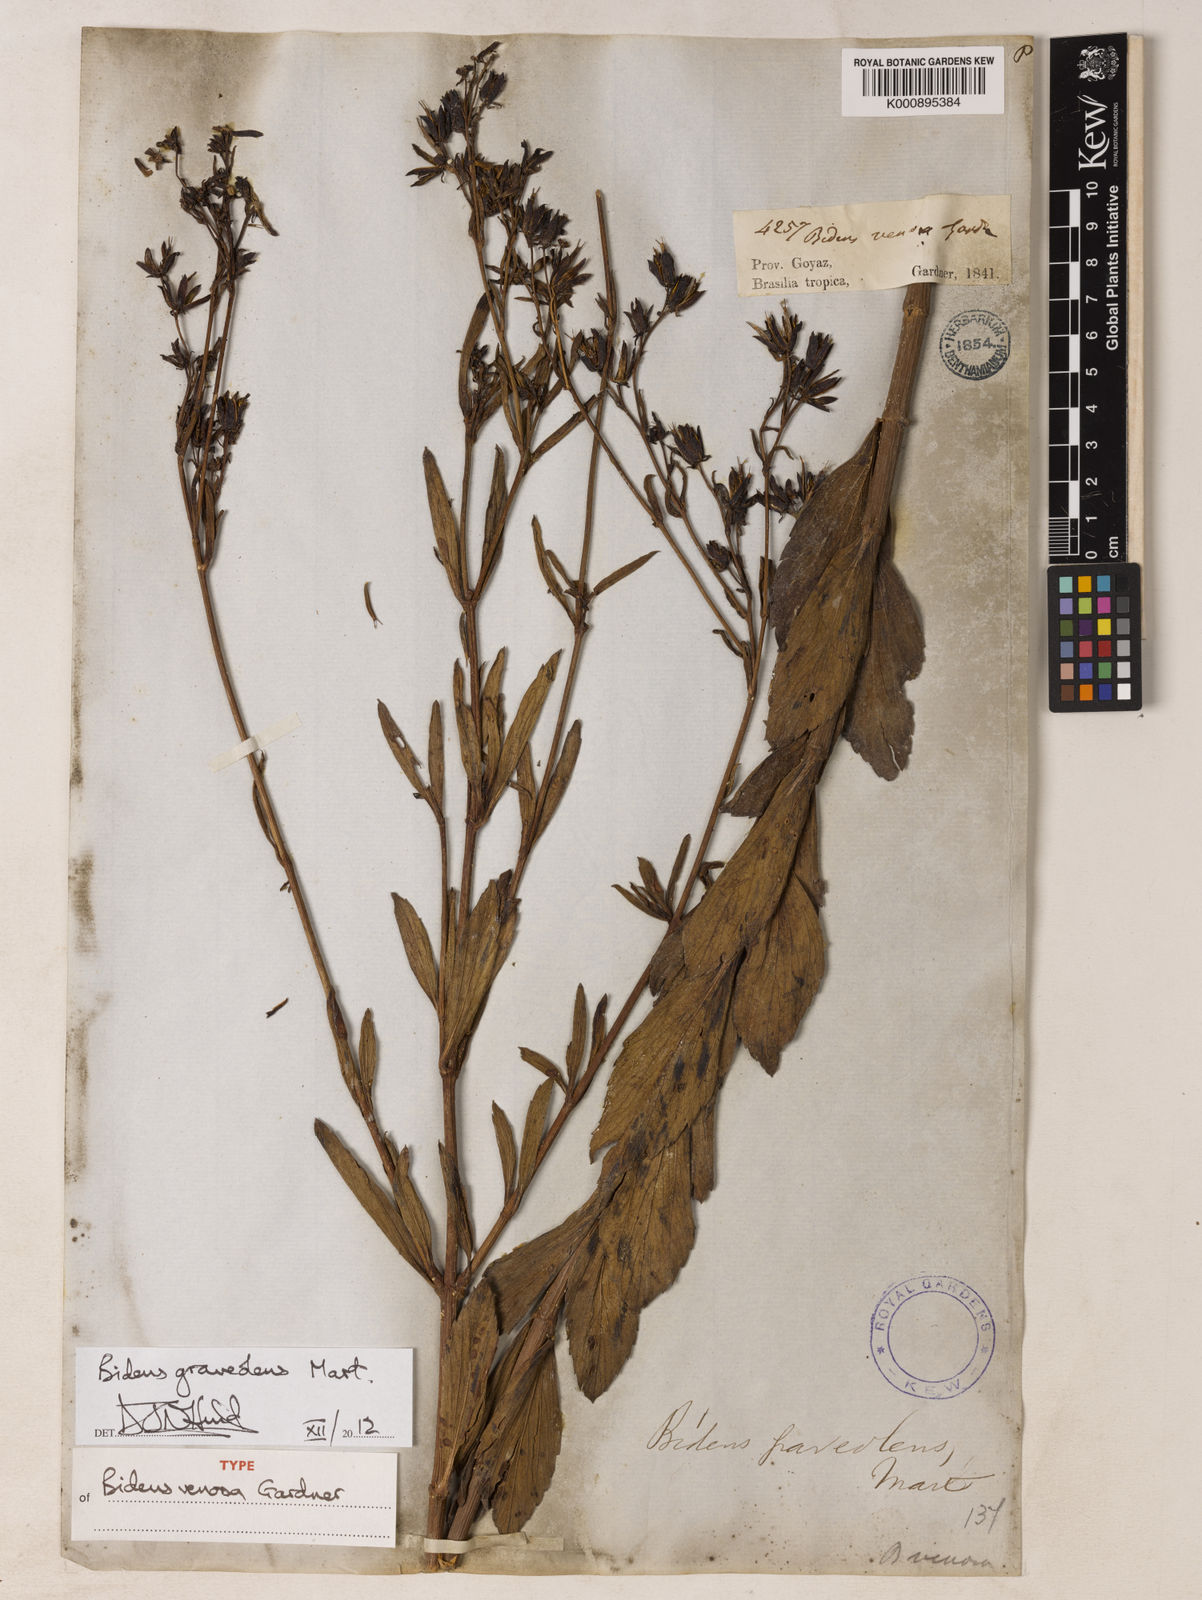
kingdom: Plantae
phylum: Tracheophyta
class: Magnoliopsida
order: Asterales
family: Asteraceae
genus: Bidens
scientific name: Bidens graveolens
